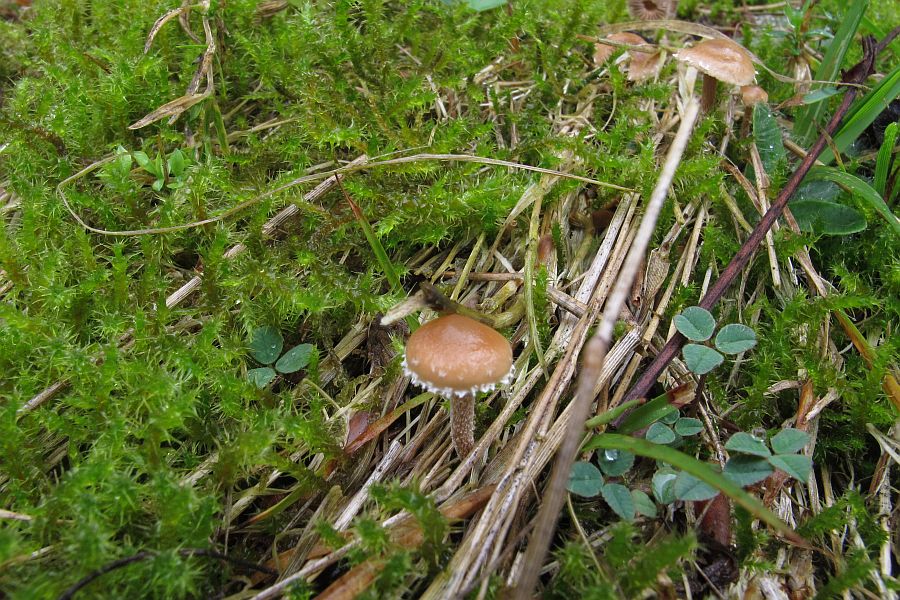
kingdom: Fungi
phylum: Basidiomycota
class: Agaricomycetes
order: Agaricales
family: Strophariaceae
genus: Deconica
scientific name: Deconica crobula
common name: træflis-stråhat
